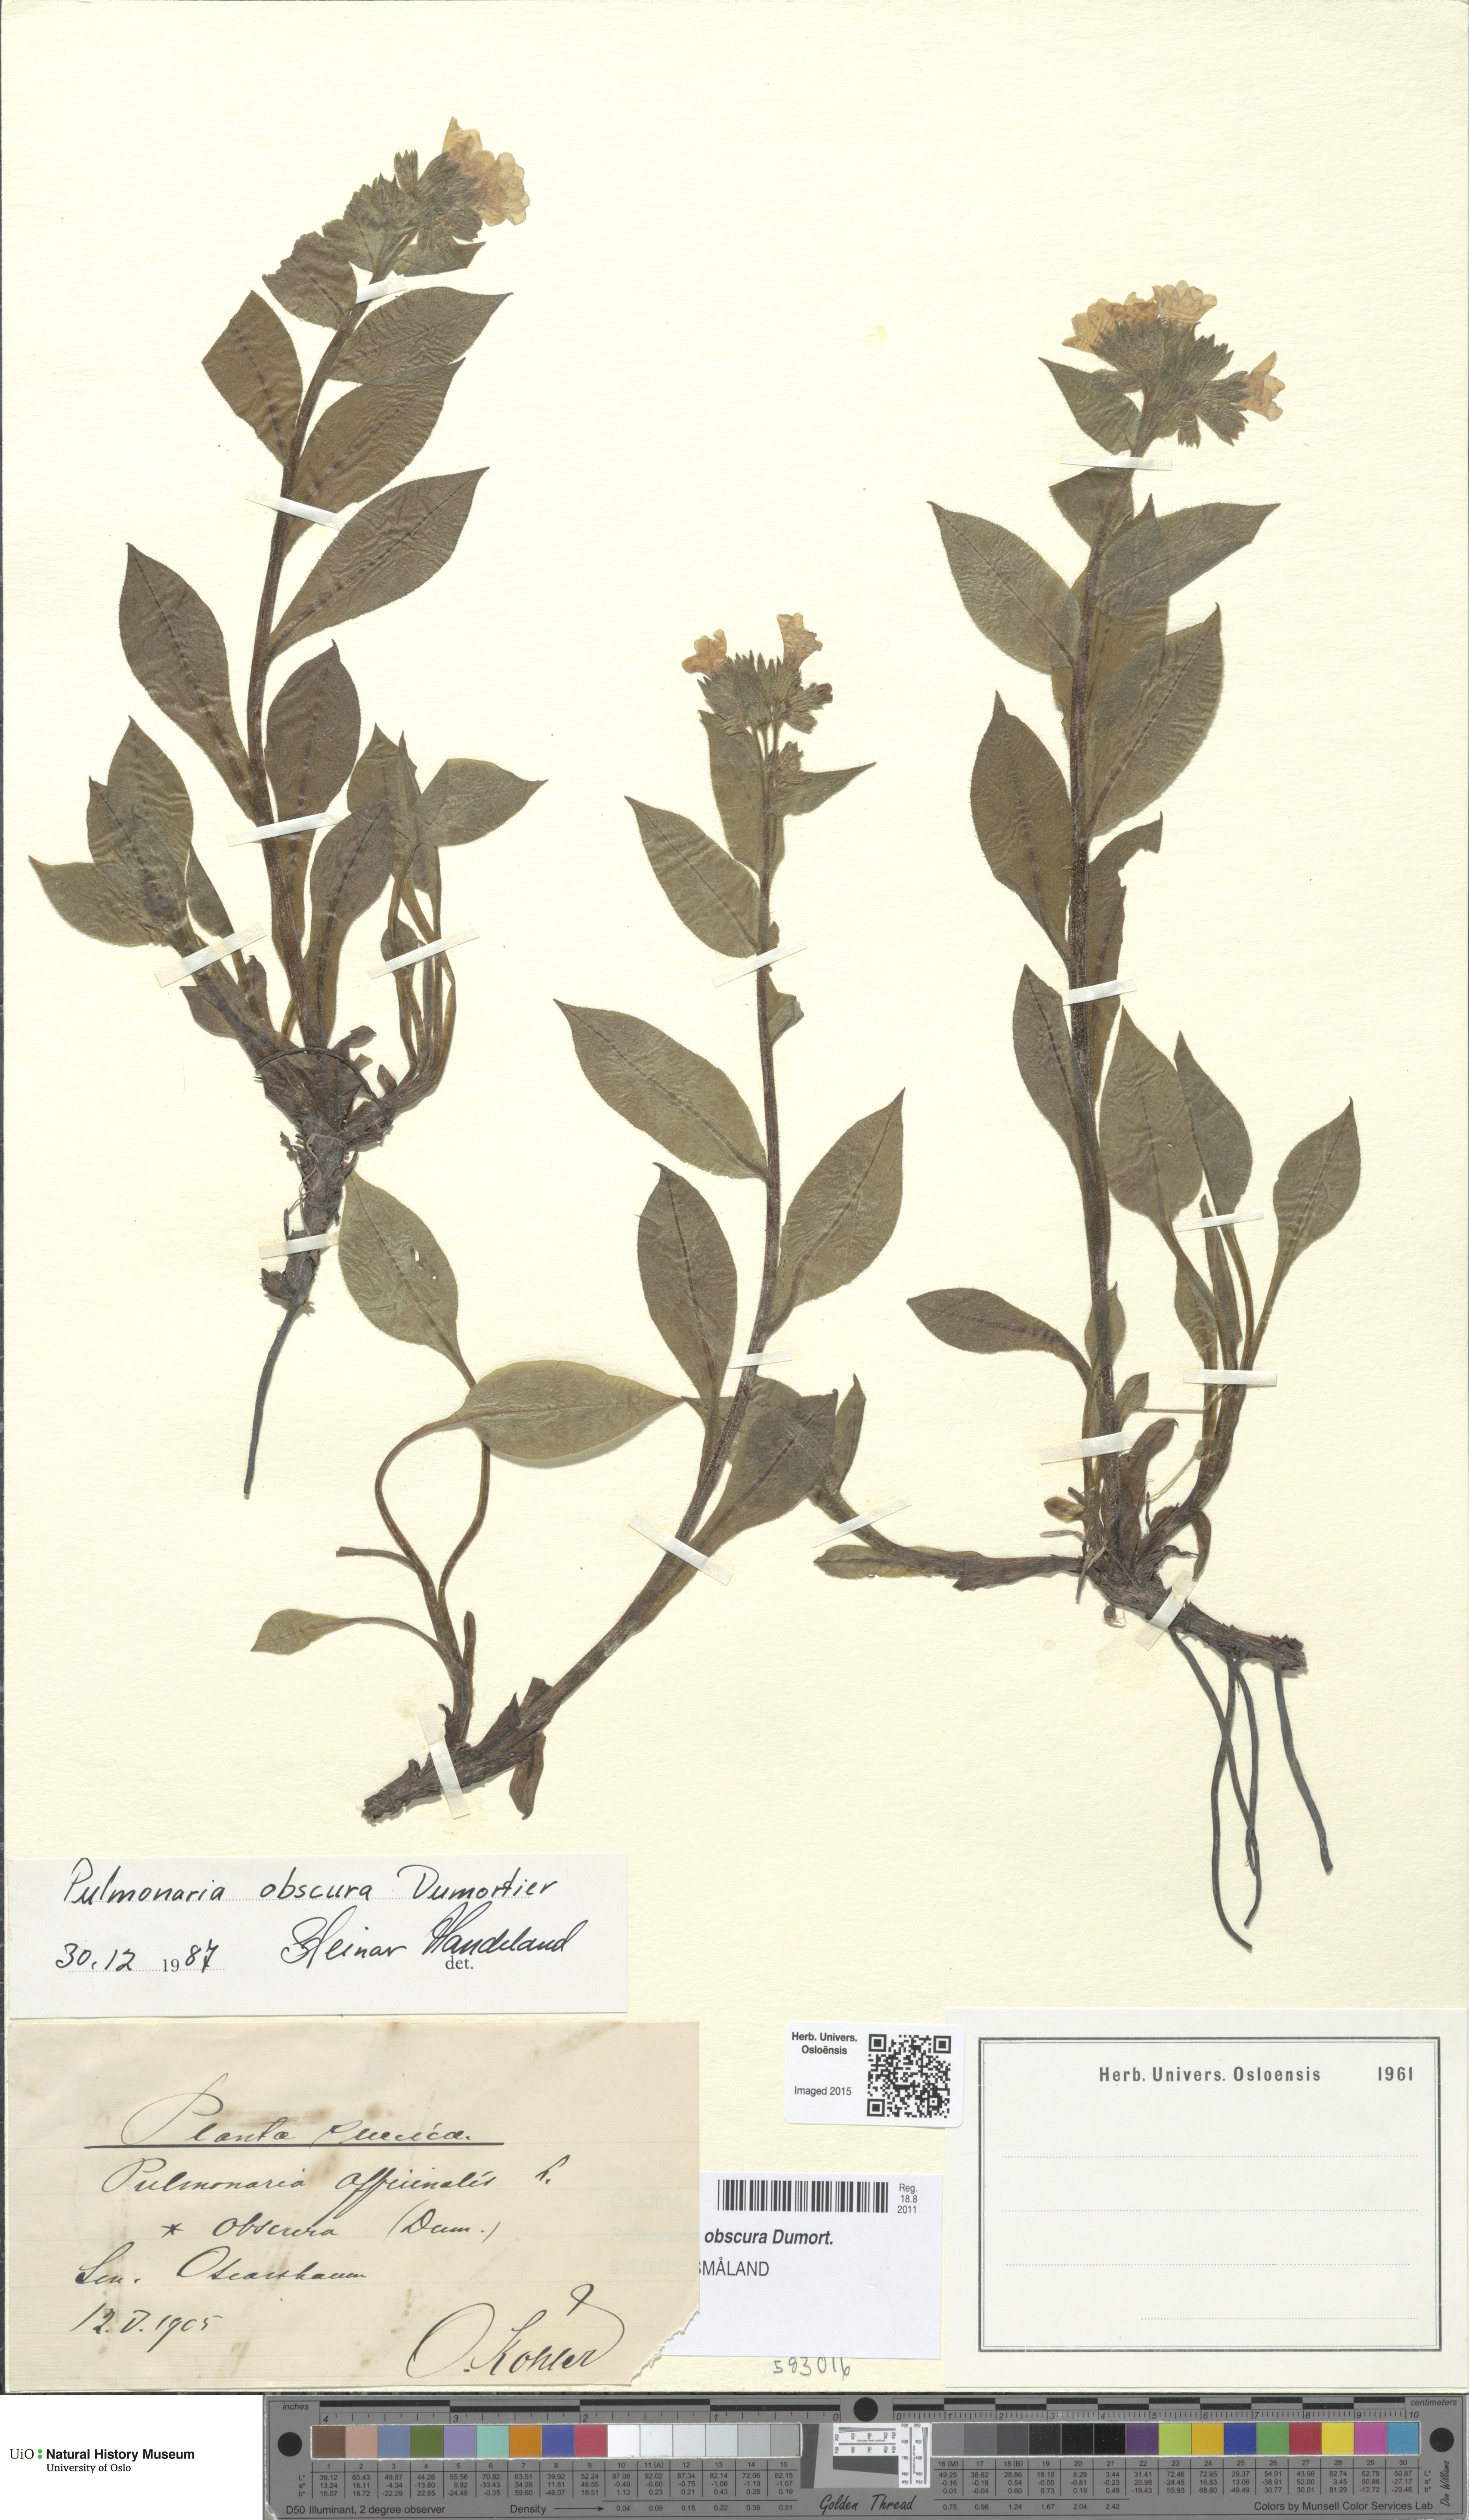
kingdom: Plantae
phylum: Tracheophyta
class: Magnoliopsida
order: Boraginales
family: Boraginaceae
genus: Pulmonaria
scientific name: Pulmonaria obscura
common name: Suffolk lungwort
